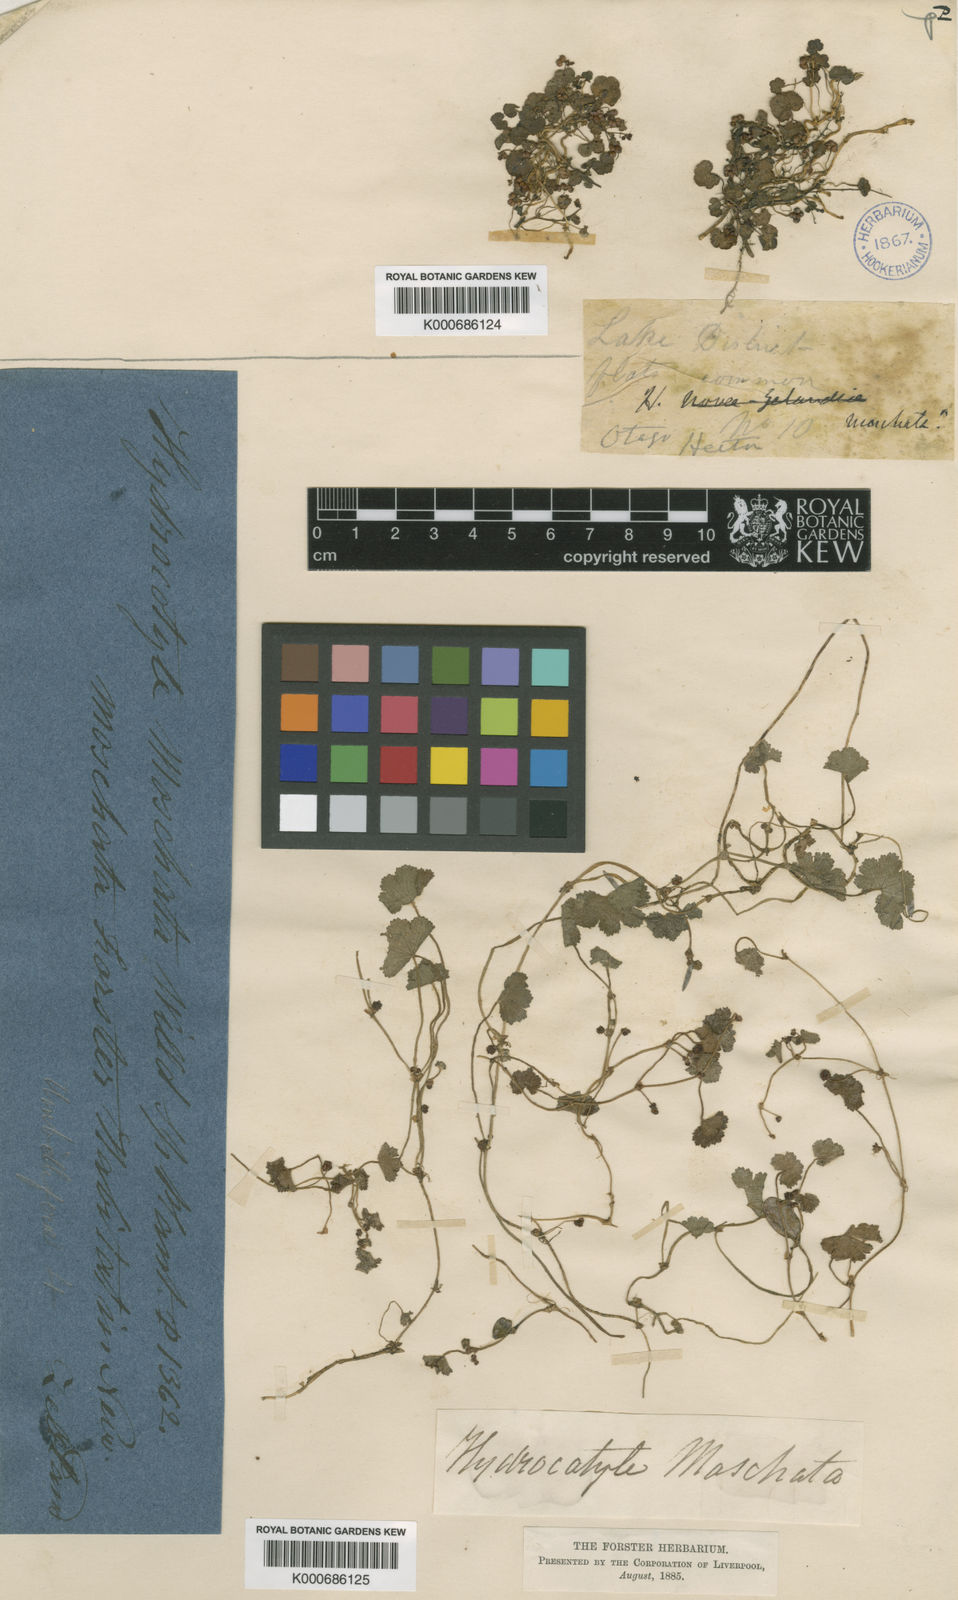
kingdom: Plantae
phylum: Tracheophyta
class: Magnoliopsida
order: Apiales
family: Araliaceae
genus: Hydrocotyle
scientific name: Hydrocotyle
